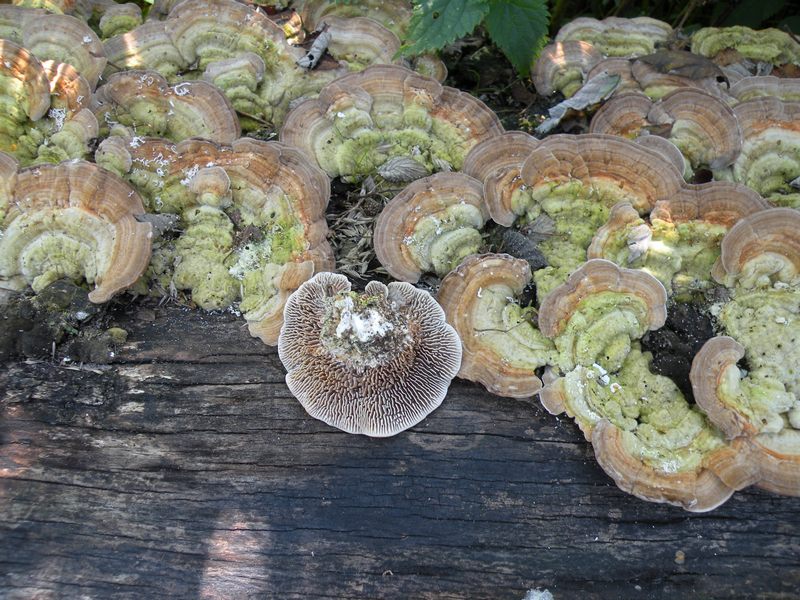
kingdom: Fungi
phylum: Basidiomycota
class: Agaricomycetes
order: Polyporales
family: Polyporaceae
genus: Lenzites
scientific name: Lenzites betulinus
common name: birke-læderporesvamp
